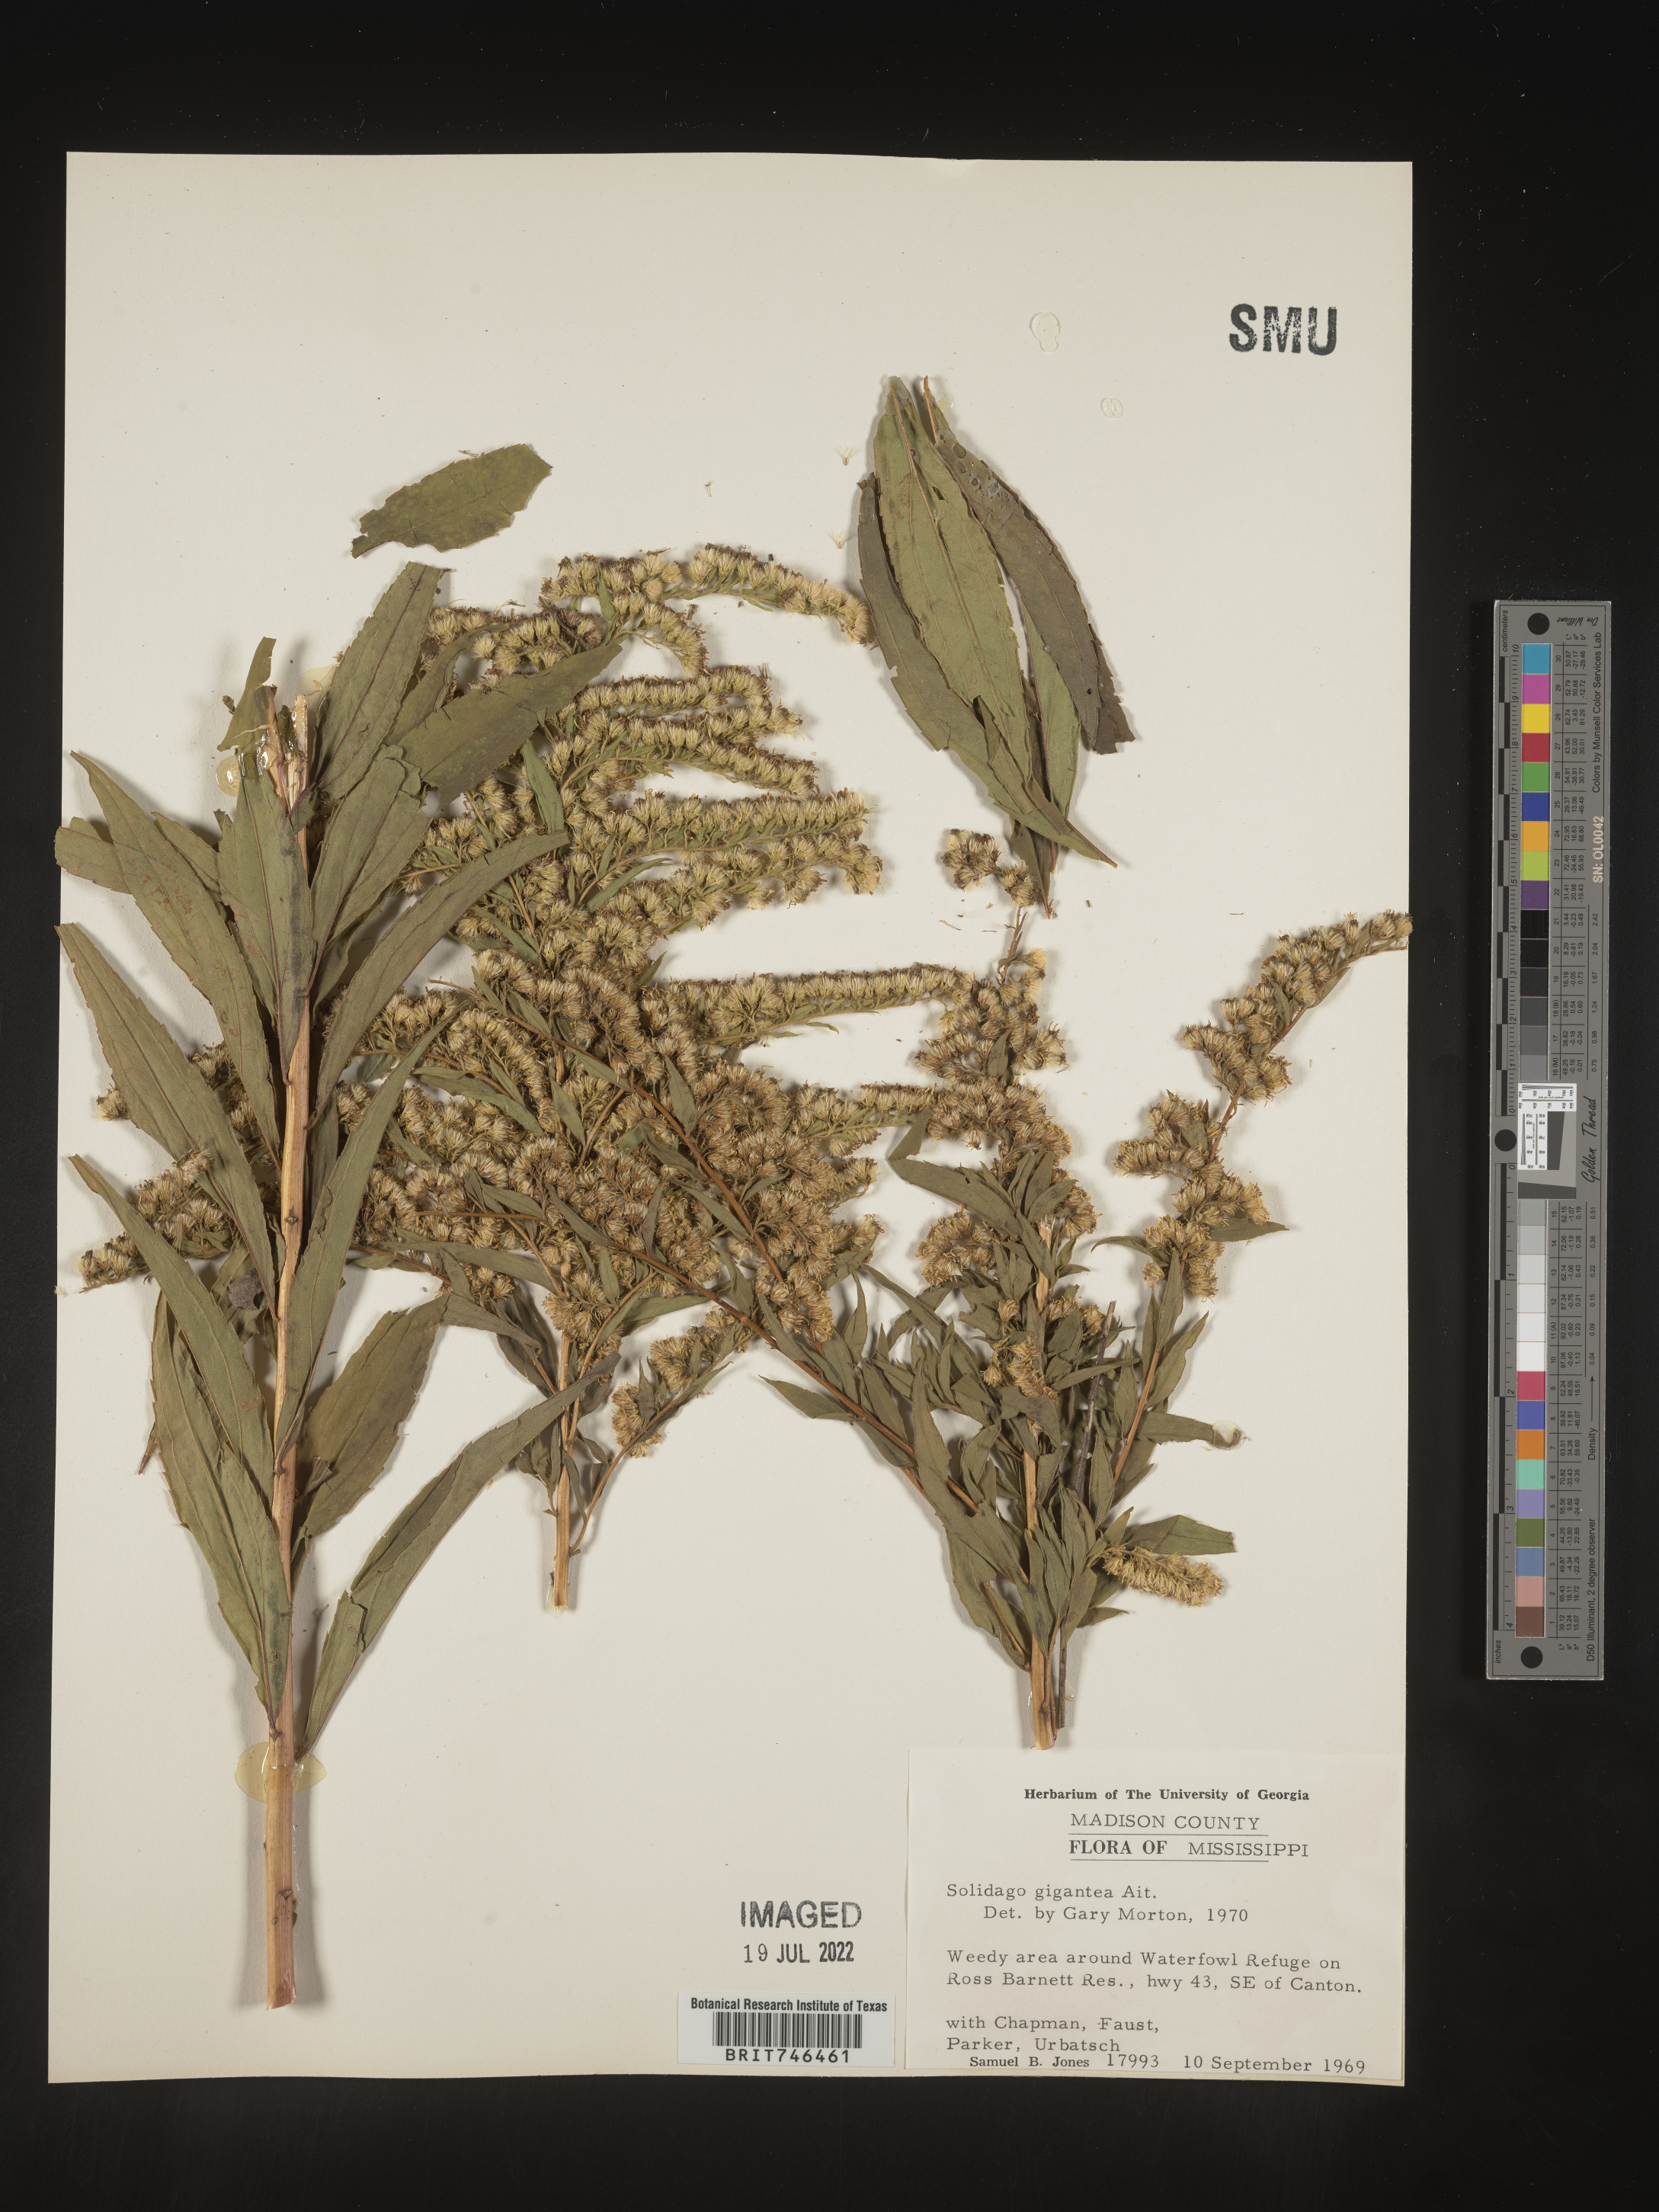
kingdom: Plantae
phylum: Tracheophyta
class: Magnoliopsida
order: Asterales
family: Asteraceae
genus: Solidago
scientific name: Solidago gigantea
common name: Giant goldenrod
